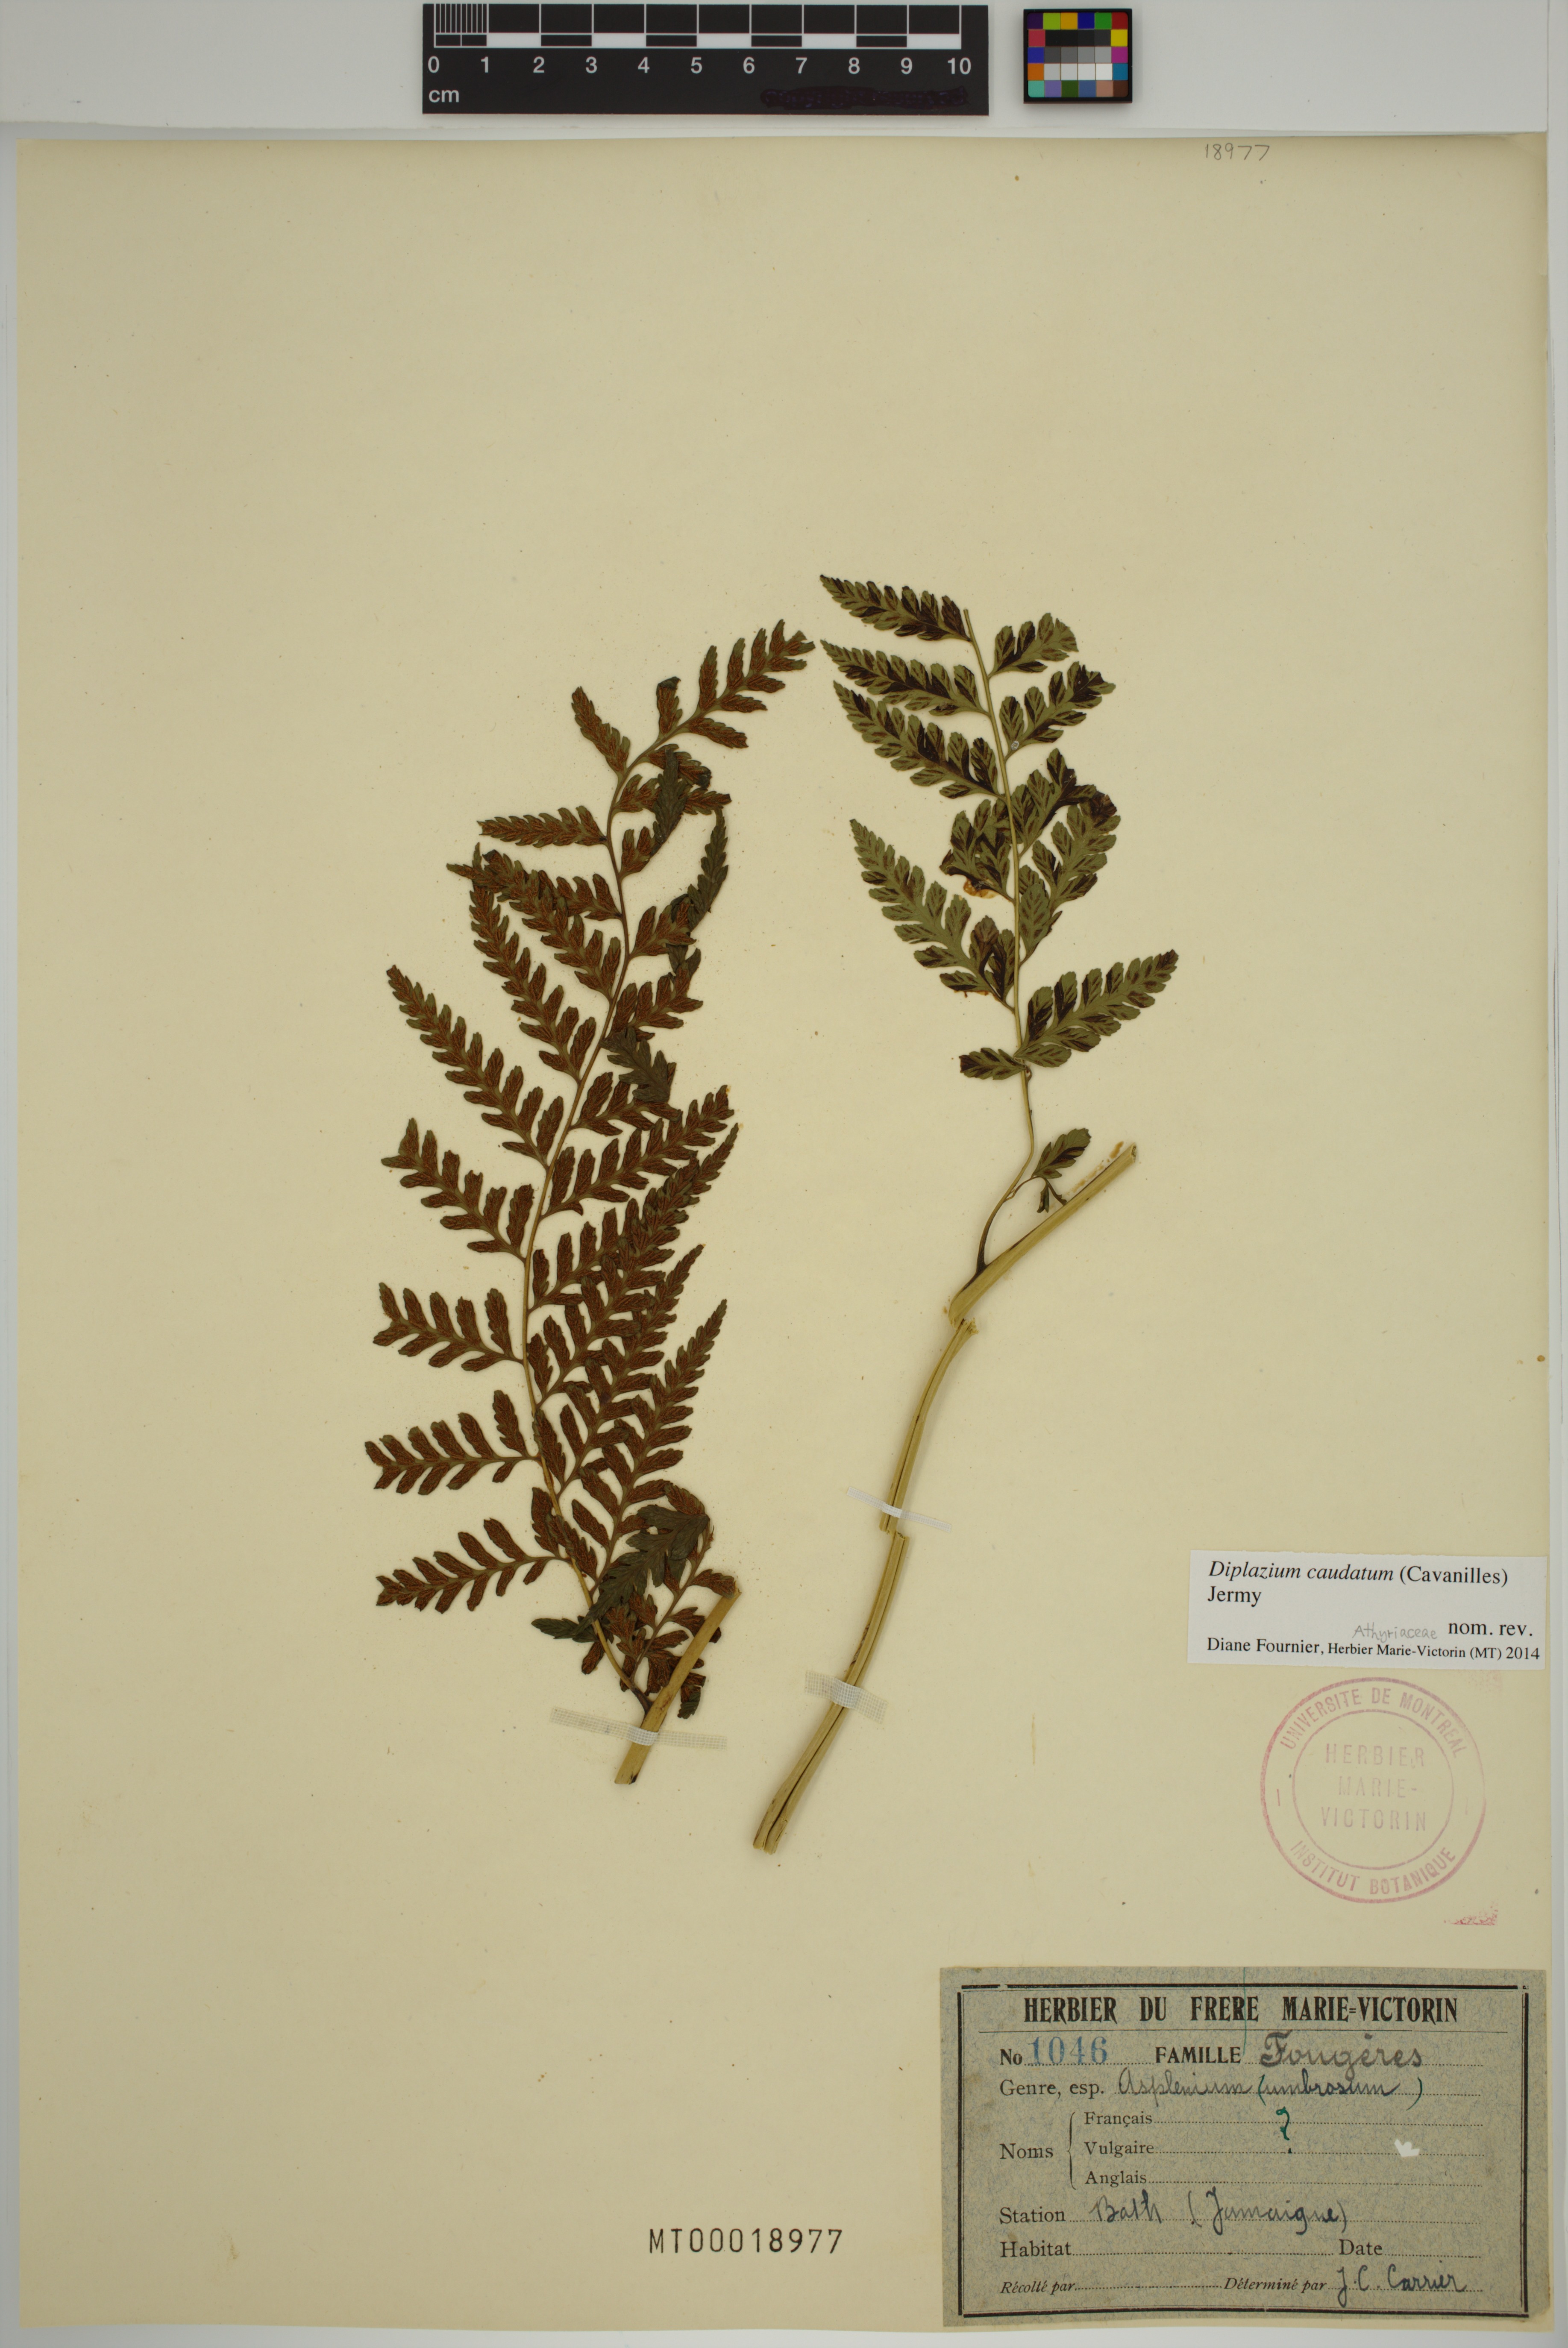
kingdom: Plantae
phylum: Tracheophyta
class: Polypodiopsida
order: Polypodiales
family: Athyriaceae
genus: Diplazium
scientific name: Diplazium caudatum
